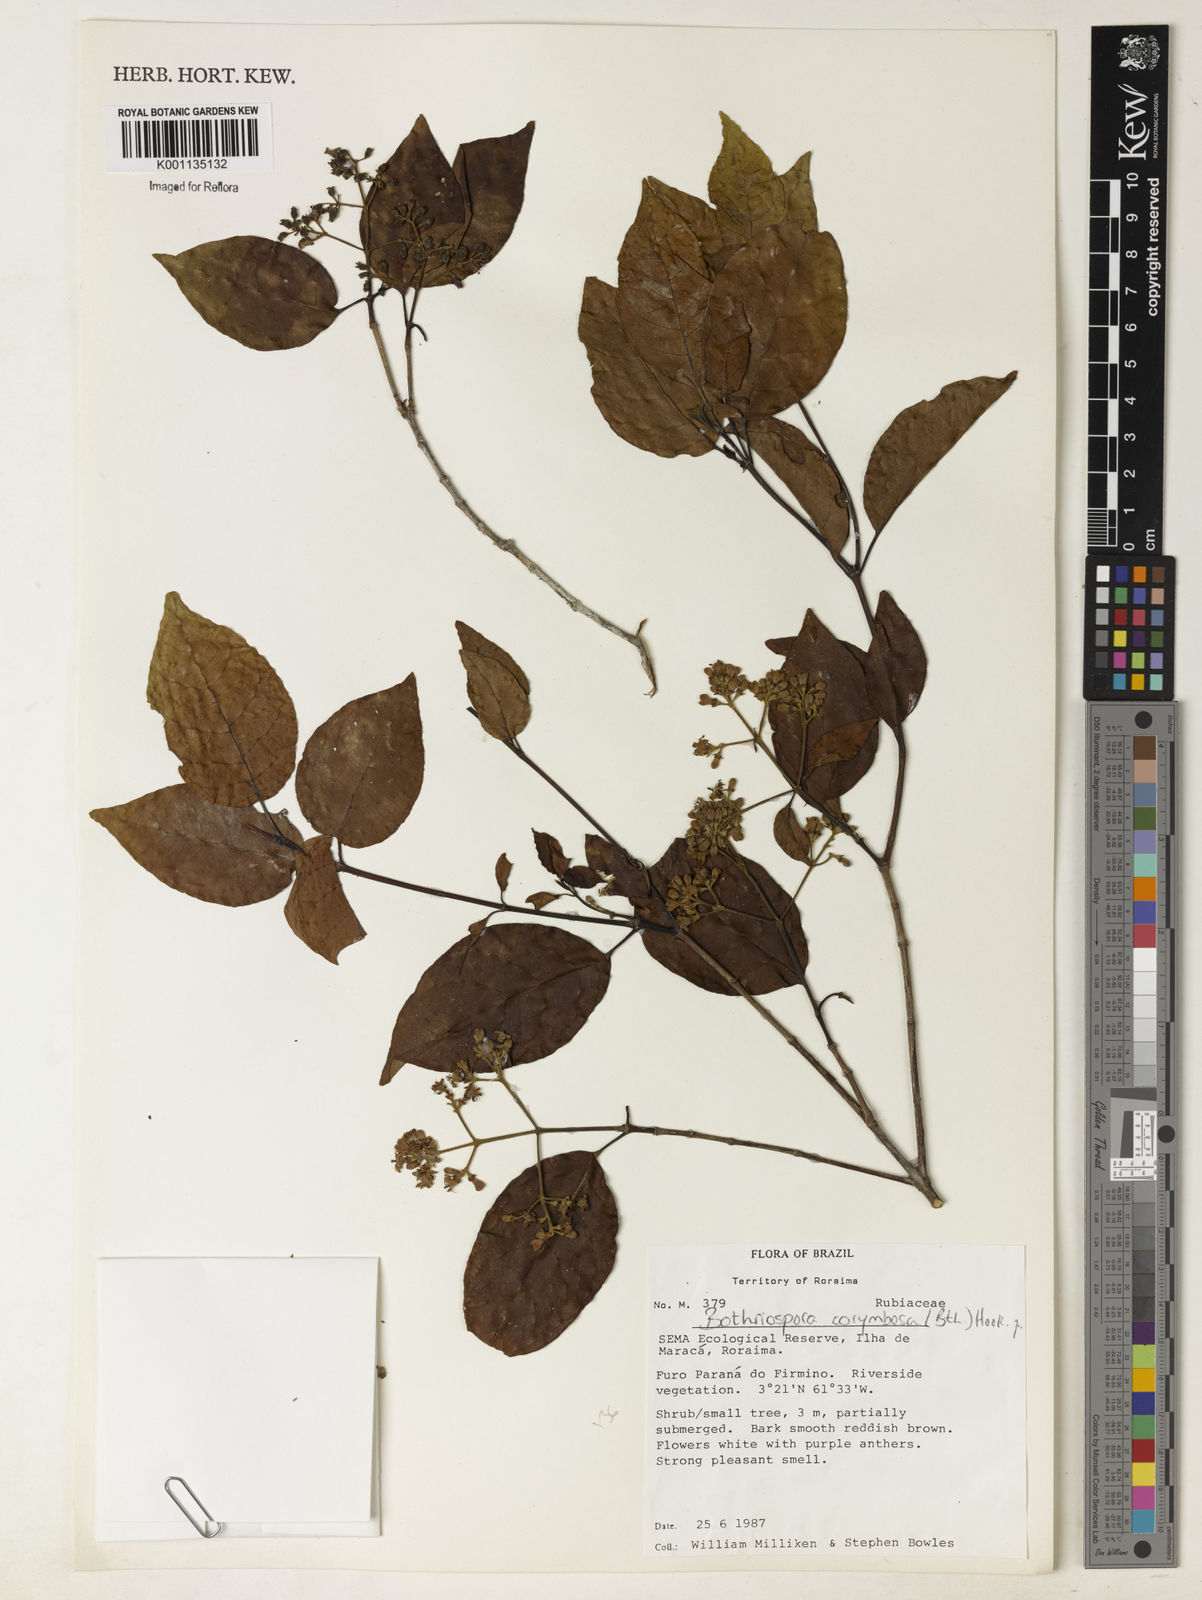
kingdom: Plantae
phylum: Tracheophyta
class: Magnoliopsida
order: Gentianales
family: Rubiaceae
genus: Bothriospora
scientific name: Bothriospora corymbosa
